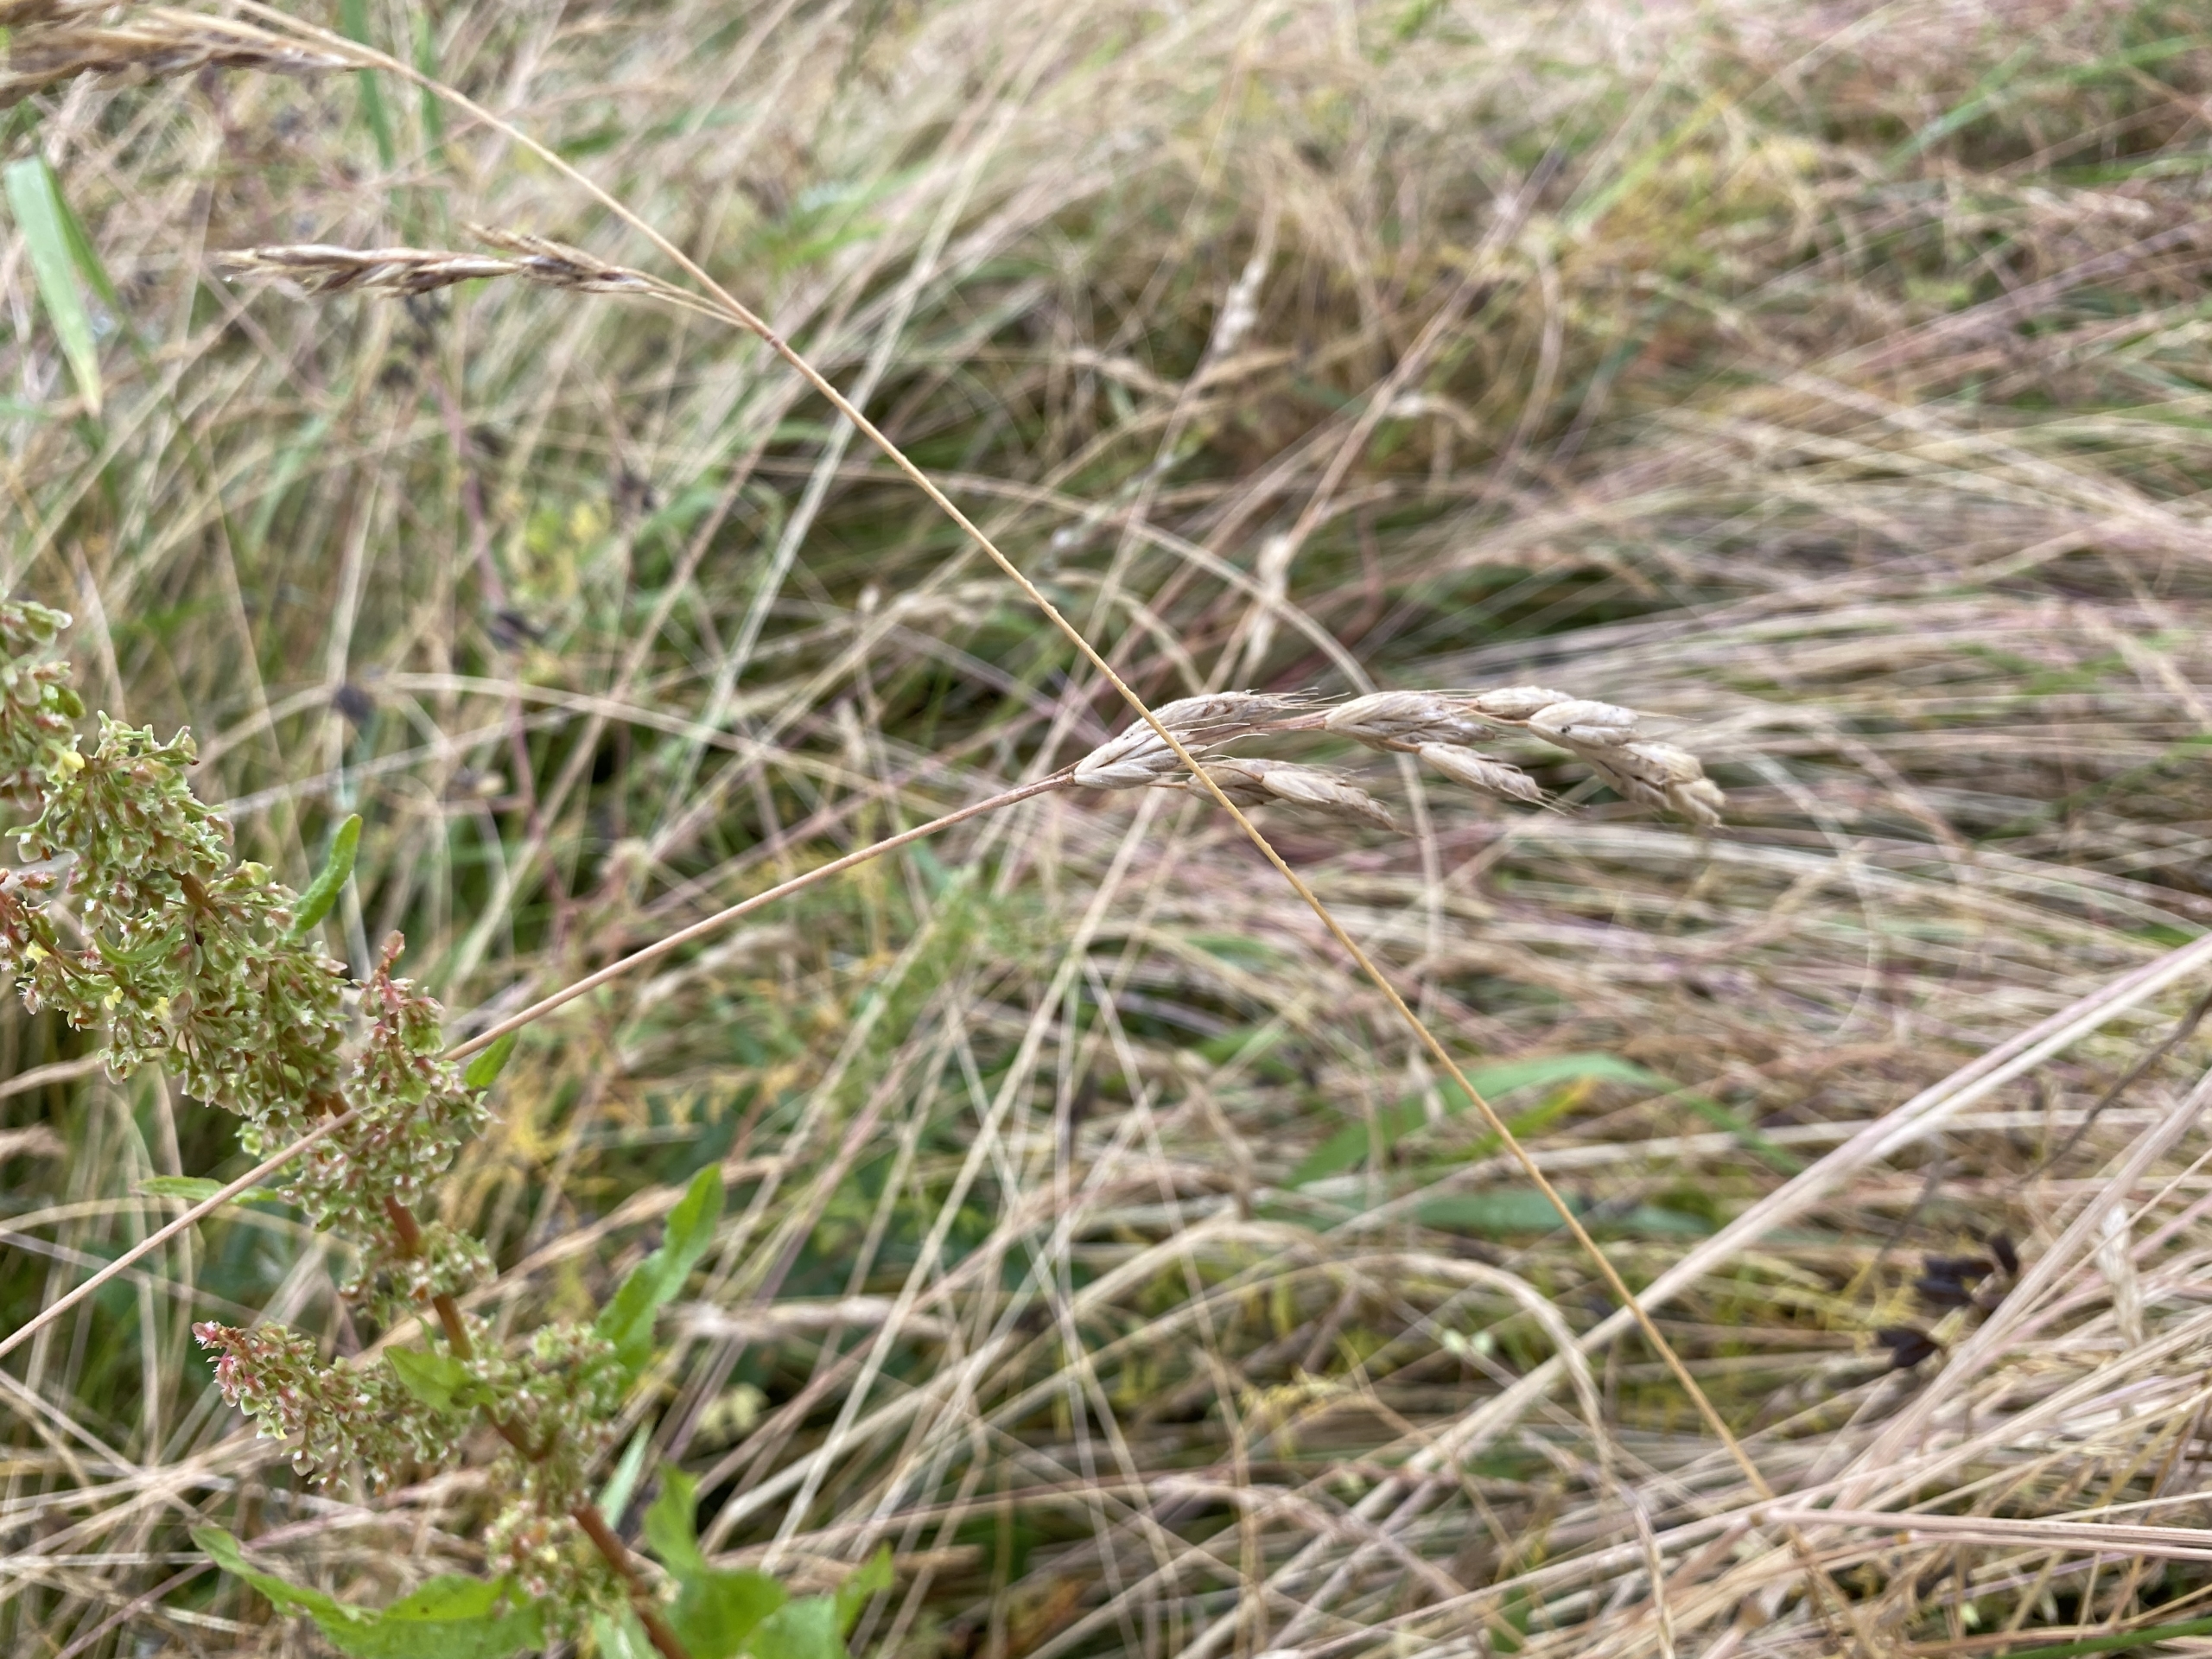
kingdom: Plantae
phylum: Tracheophyta
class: Liliopsida
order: Poales
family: Poaceae
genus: Bromus
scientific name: Bromus hordeaceus
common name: Blød hejre
